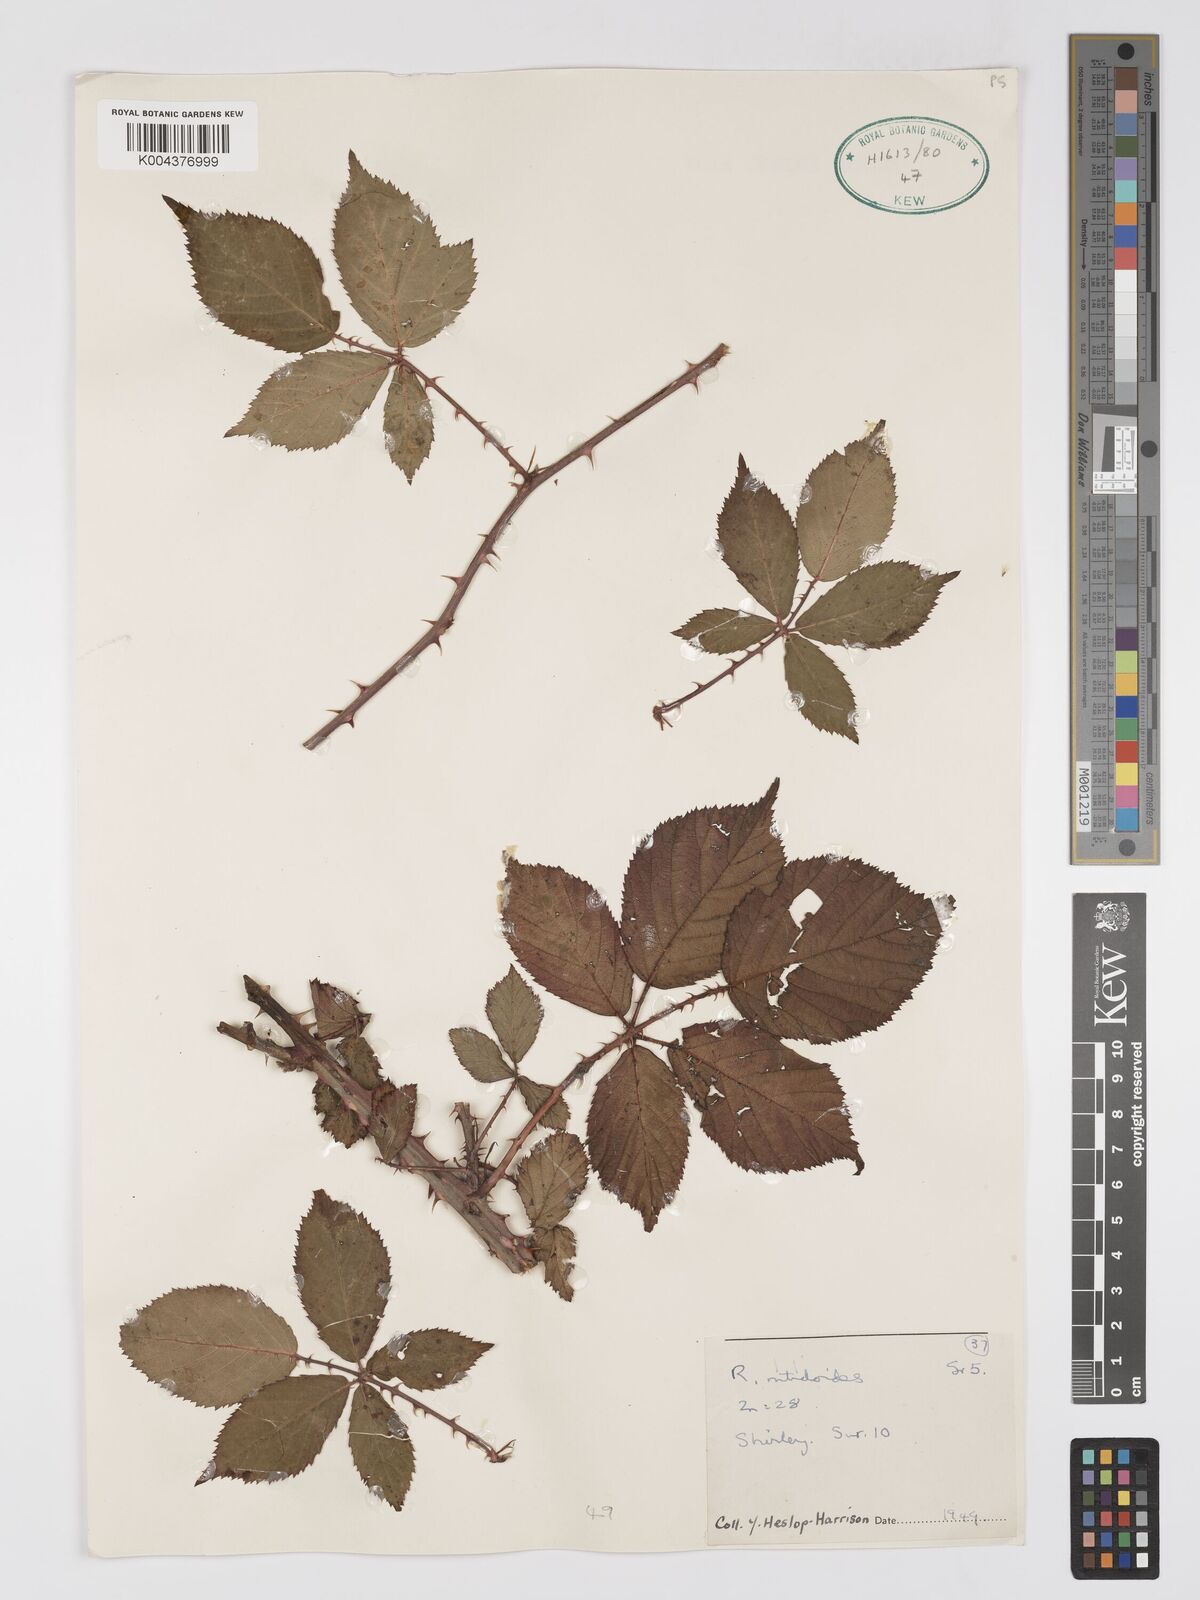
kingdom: Plantae
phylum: Tracheophyta
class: Magnoliopsida
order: Rosales
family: Rosaceae
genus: Rubus
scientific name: Rubus nitidiformis
